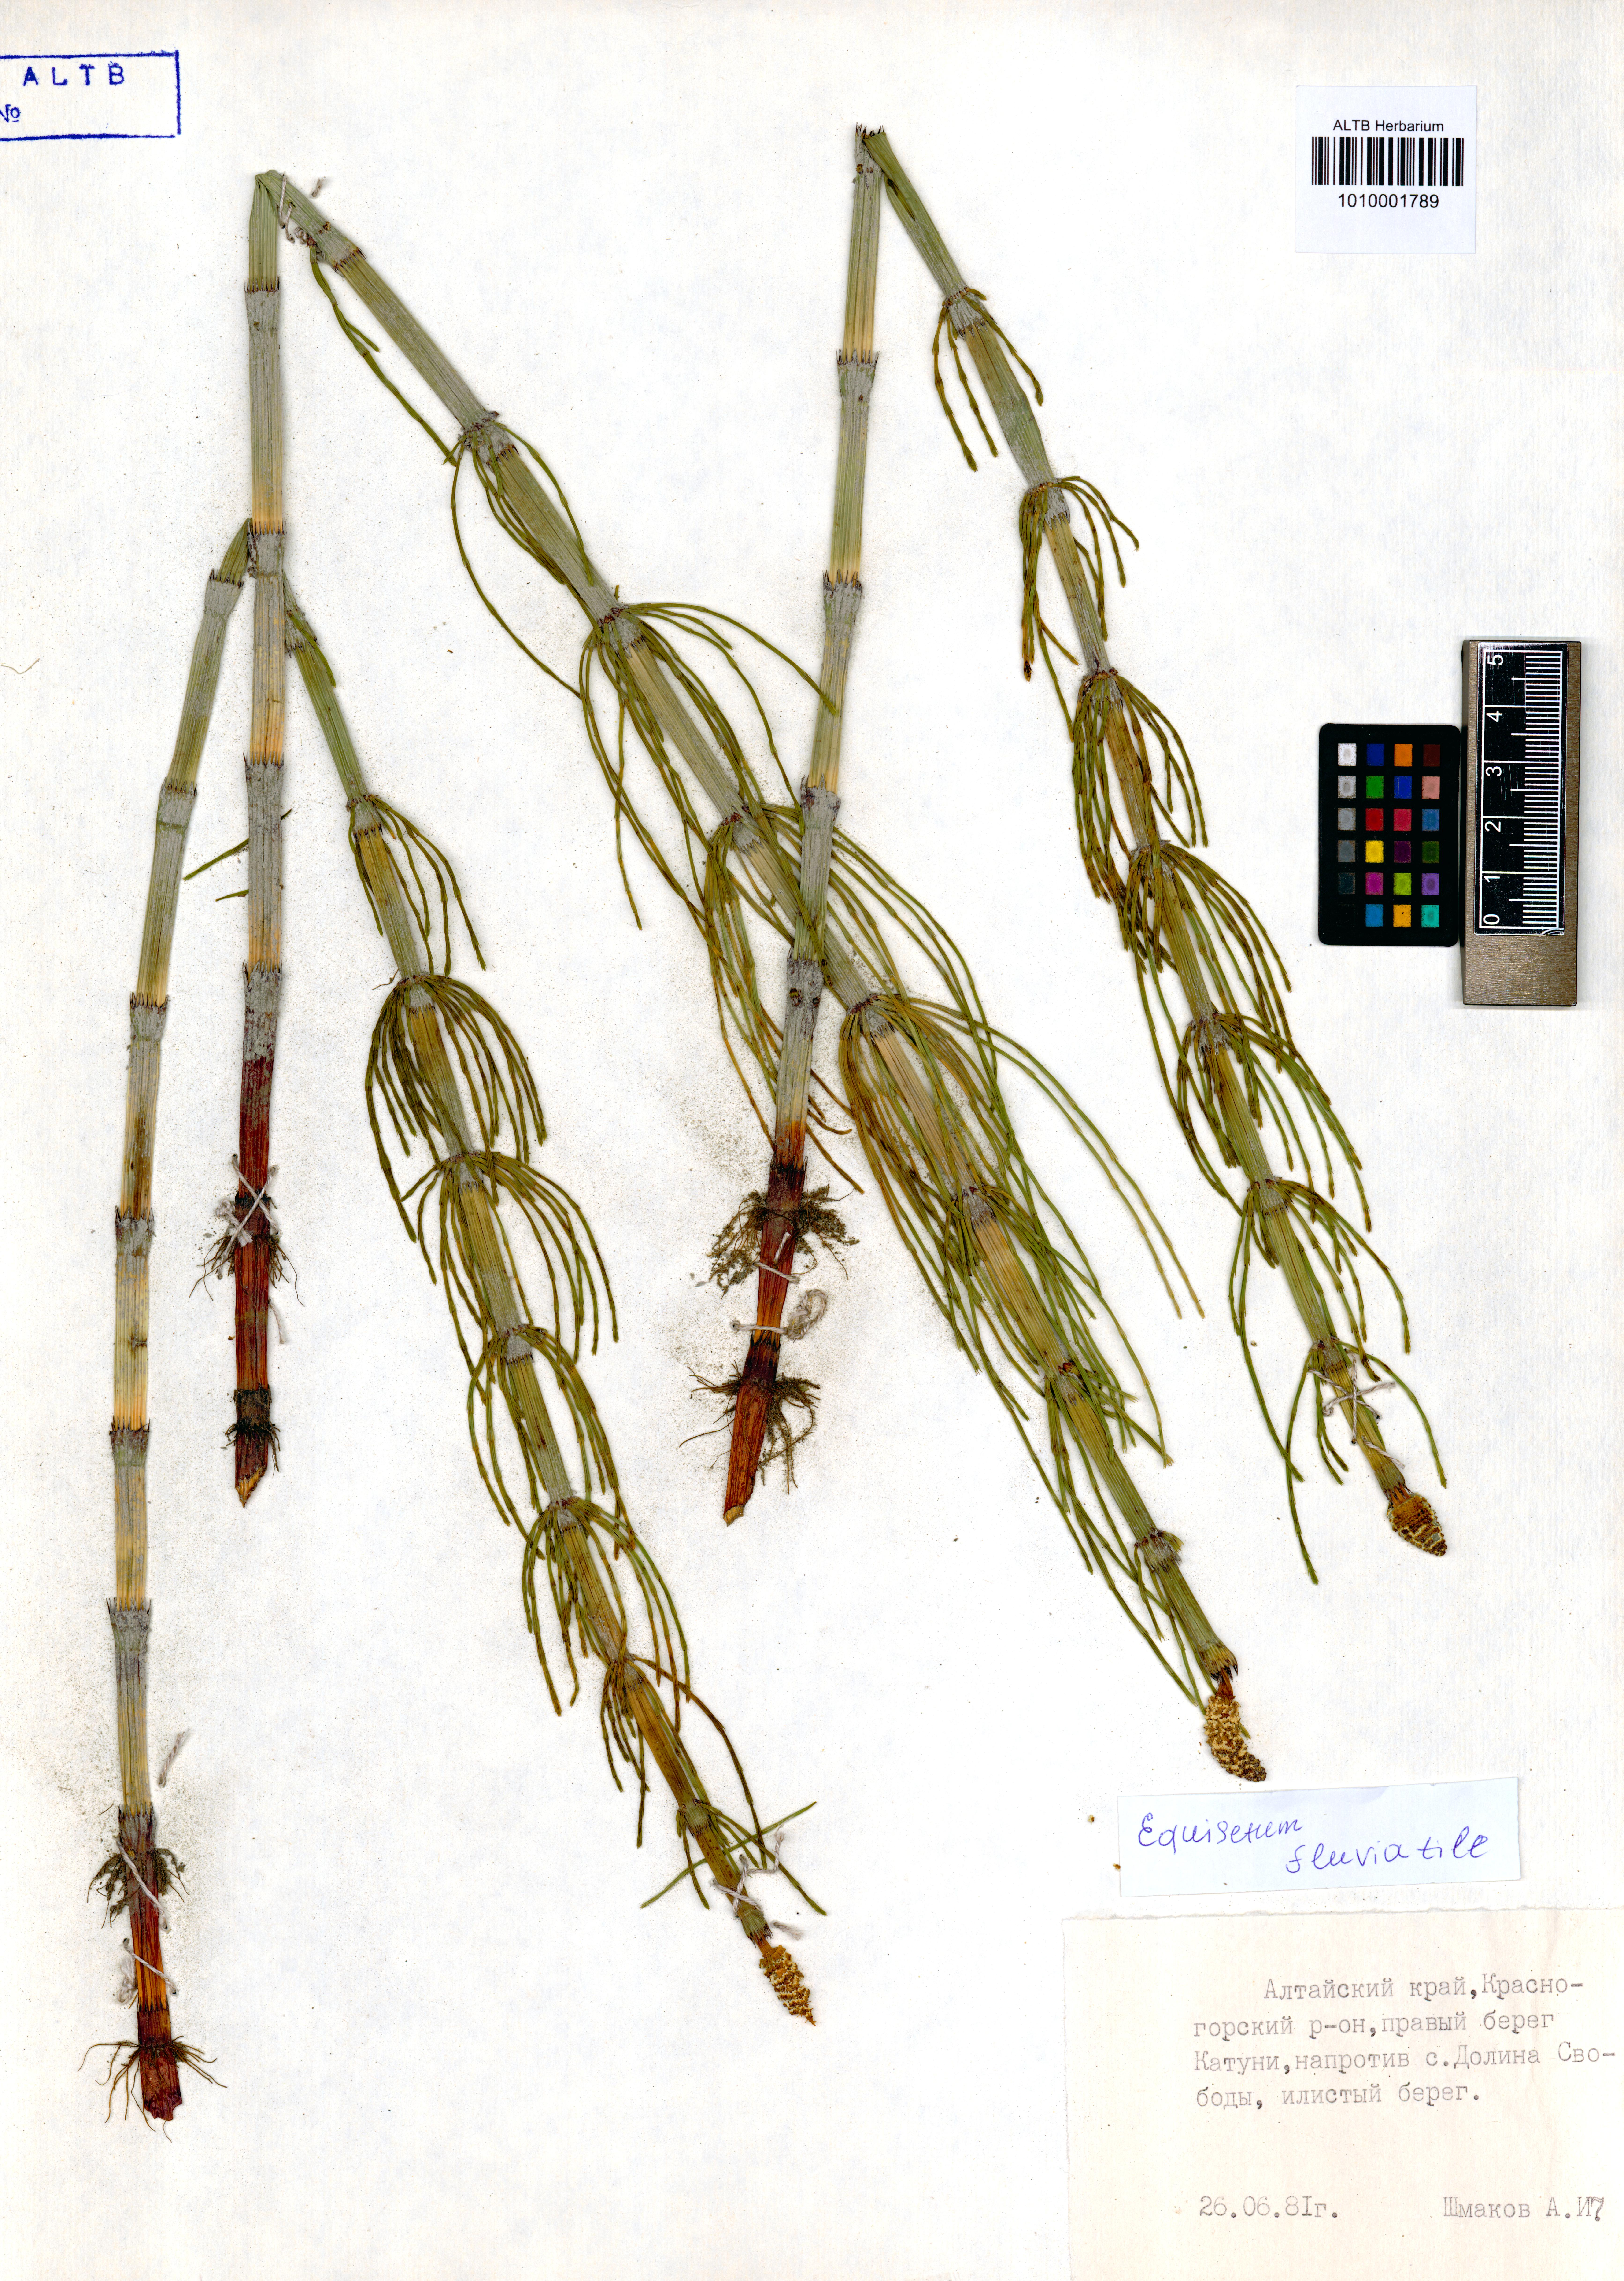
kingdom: Plantae
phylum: Tracheophyta
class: Polypodiopsida
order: Equisetales
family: Equisetaceae
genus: Equisetum
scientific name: Equisetum fluviatile
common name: Water horsetail
